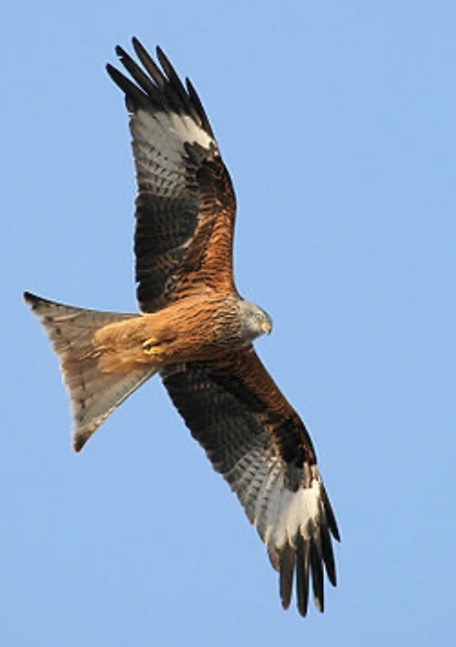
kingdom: Animalia
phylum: Chordata
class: Aves
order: Accipitriformes
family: Accipitridae
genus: Milvus
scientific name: Milvus milvus
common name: Rød glente
